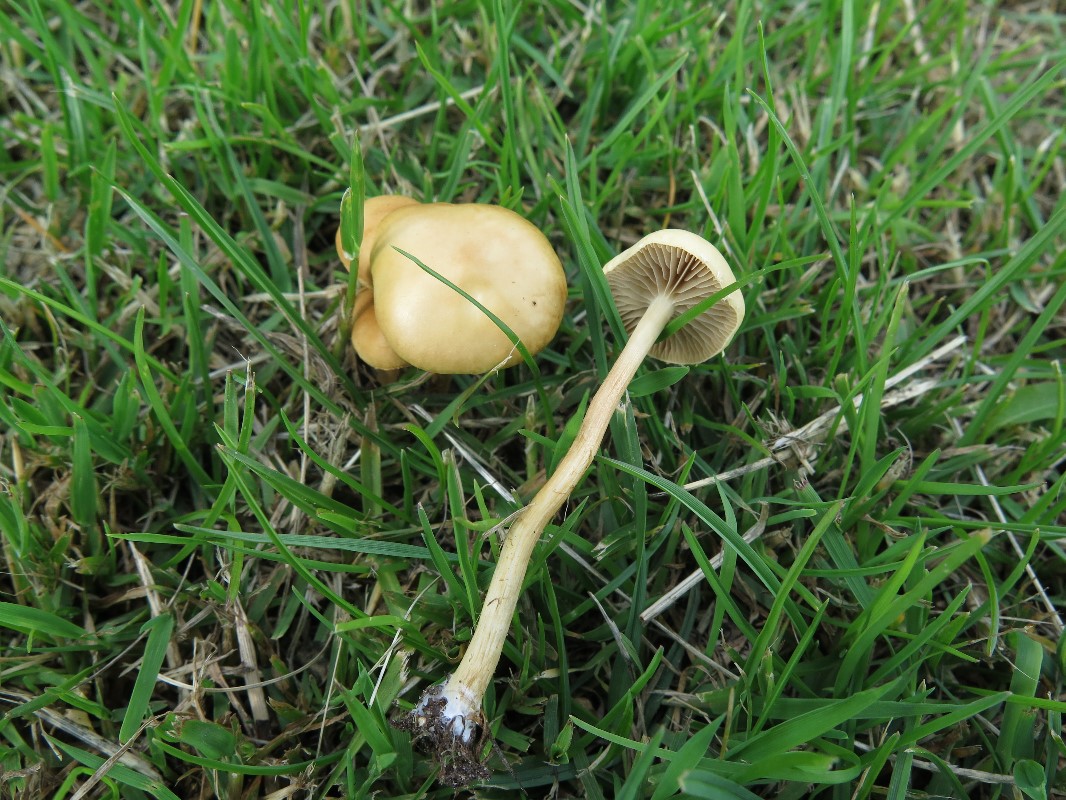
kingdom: Fungi
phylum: Basidiomycota
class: Agaricomycetes
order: Agaricales
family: Strophariaceae
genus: Agrocybe
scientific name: Agrocybe pediades
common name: almindelig agerhat
